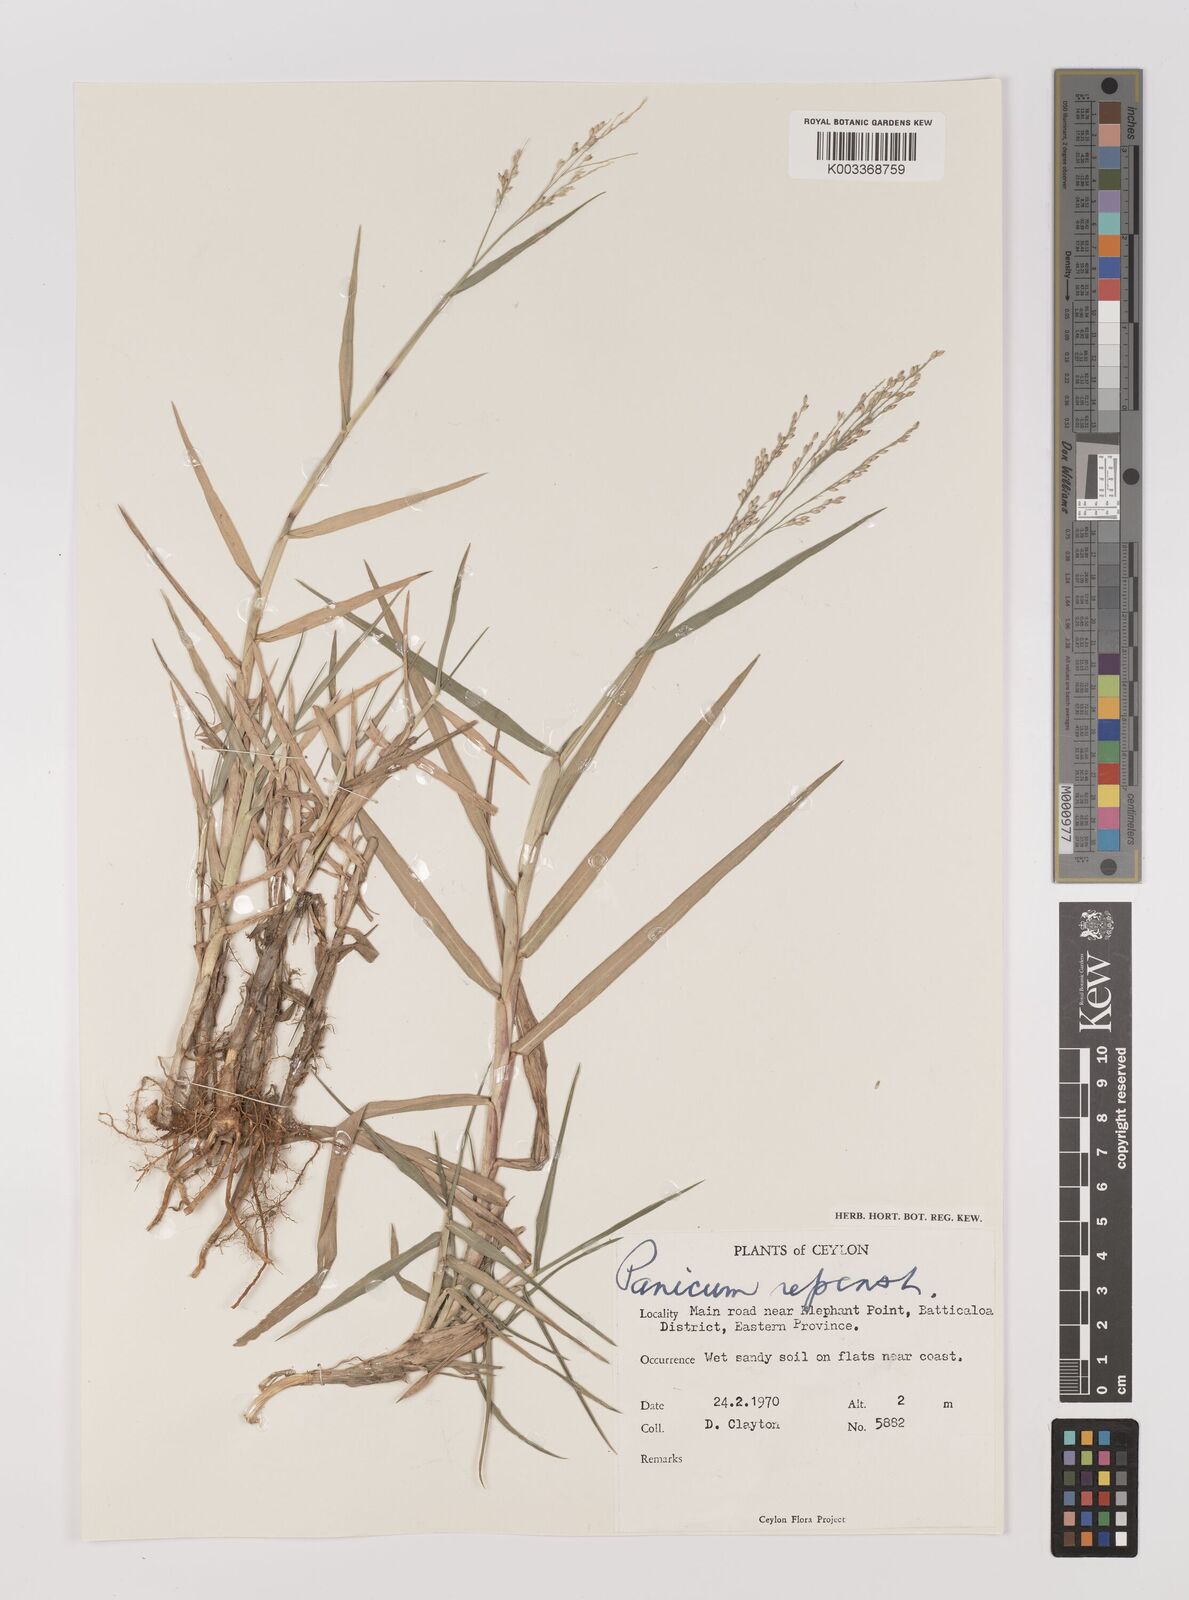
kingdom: Plantae
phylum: Tracheophyta
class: Liliopsida
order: Poales
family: Poaceae
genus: Panicum
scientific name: Panicum repens
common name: Torpedo grass
